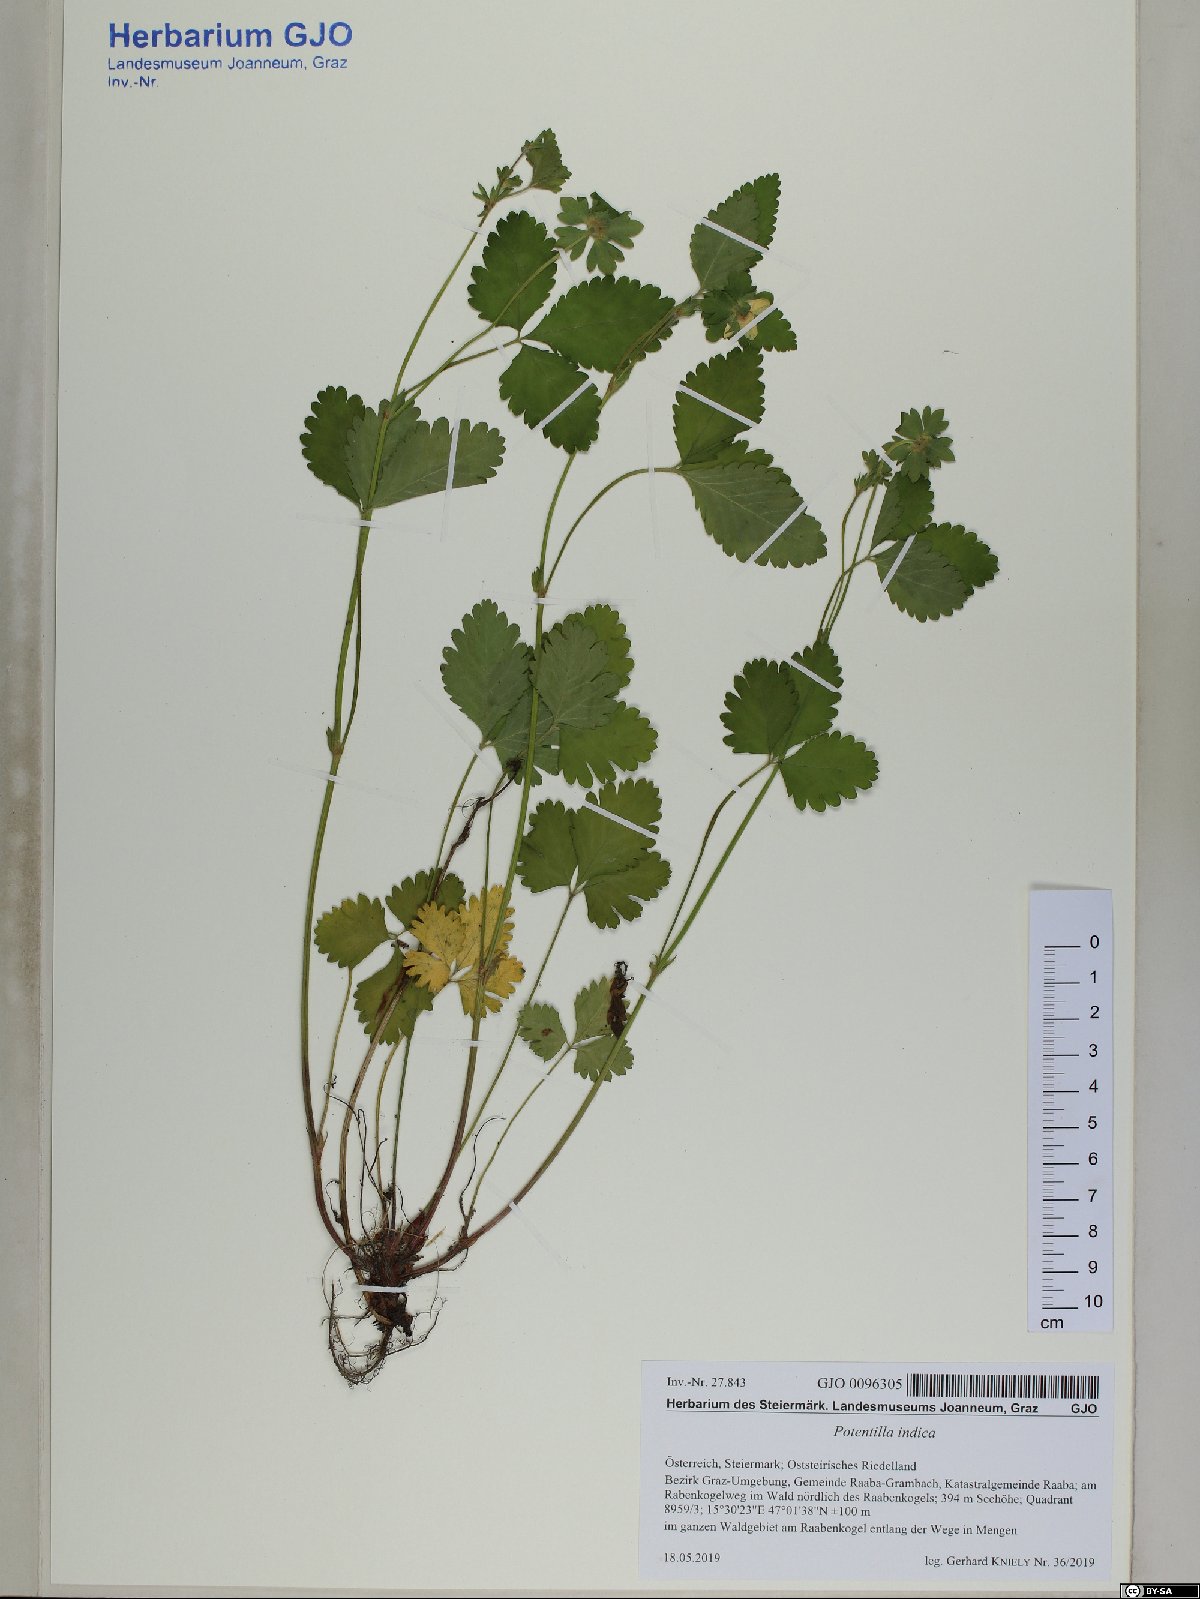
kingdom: Plantae
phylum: Tracheophyta
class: Magnoliopsida
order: Rosales
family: Rosaceae
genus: Potentilla
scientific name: Potentilla indica
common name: Yellow-flowered strawberry
